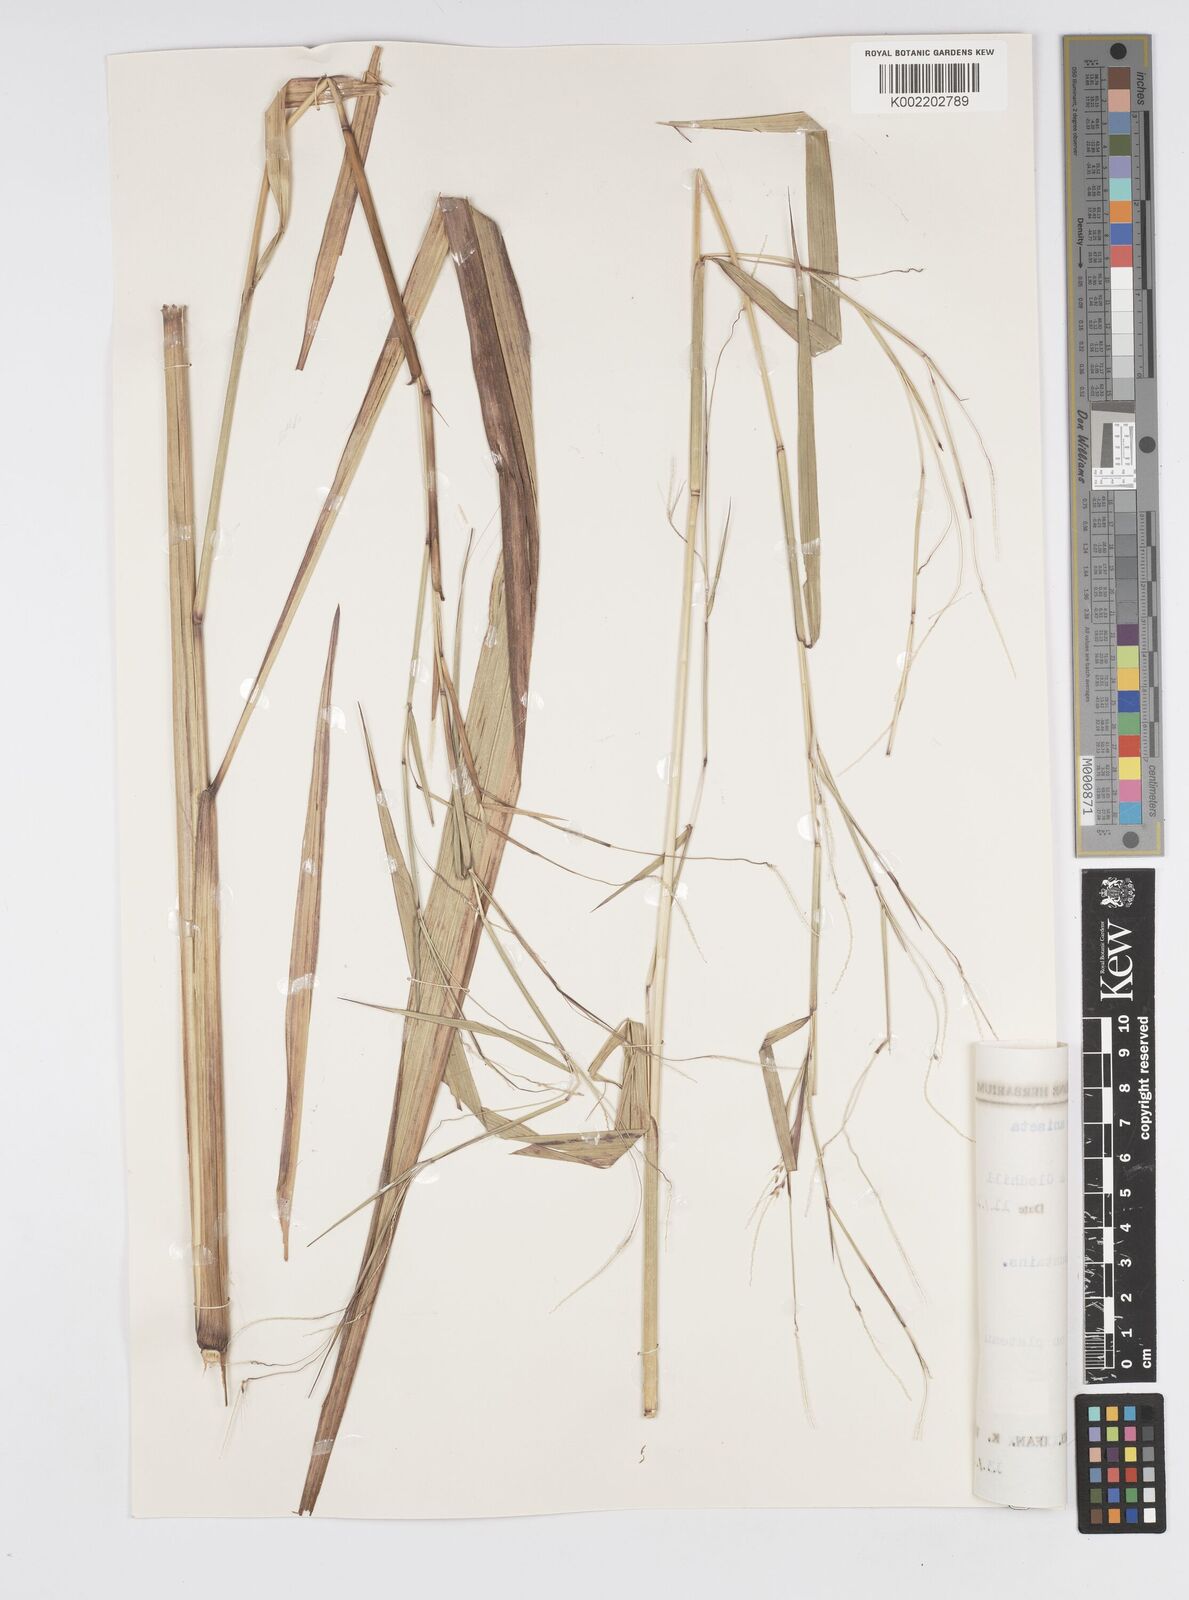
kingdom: Plantae
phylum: Tracheophyta
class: Liliopsida
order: Poales
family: Poaceae
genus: Cenchrus
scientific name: Cenchrus unisetus
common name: Natal grass
